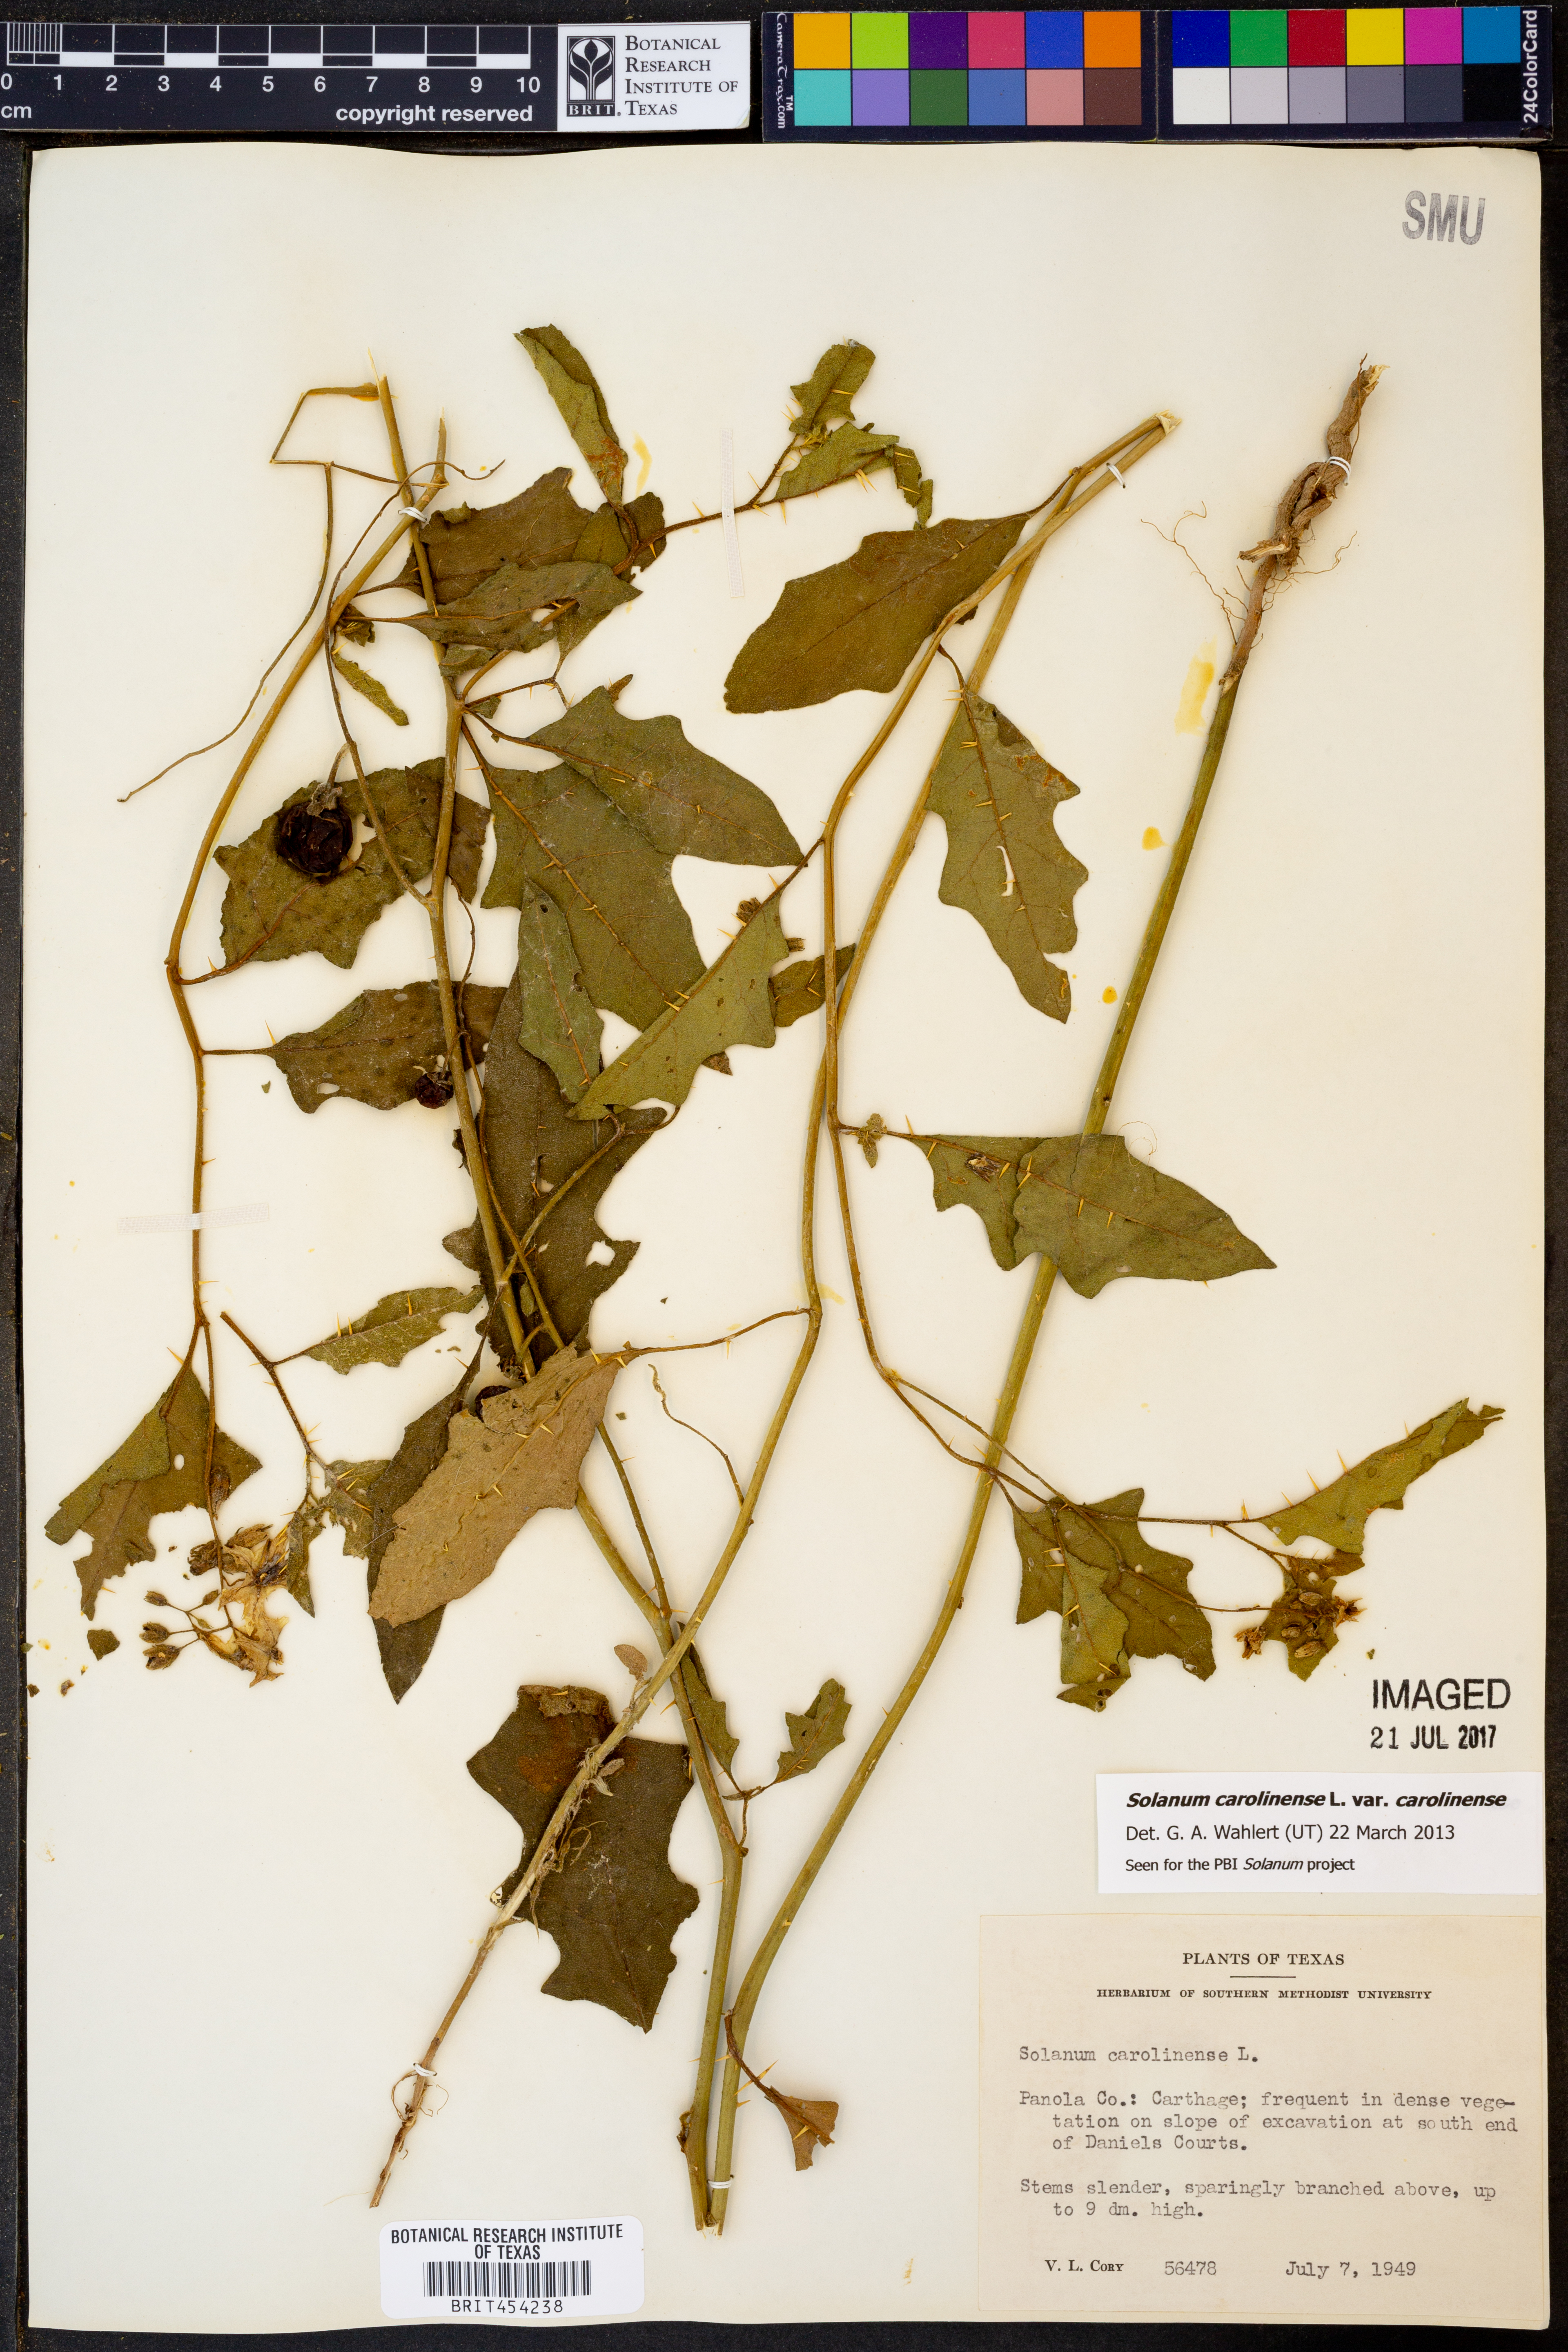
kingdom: Plantae
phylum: Tracheophyta
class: Magnoliopsida
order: Solanales
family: Solanaceae
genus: Solanum
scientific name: Solanum carolinense
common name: Horse-nettle
